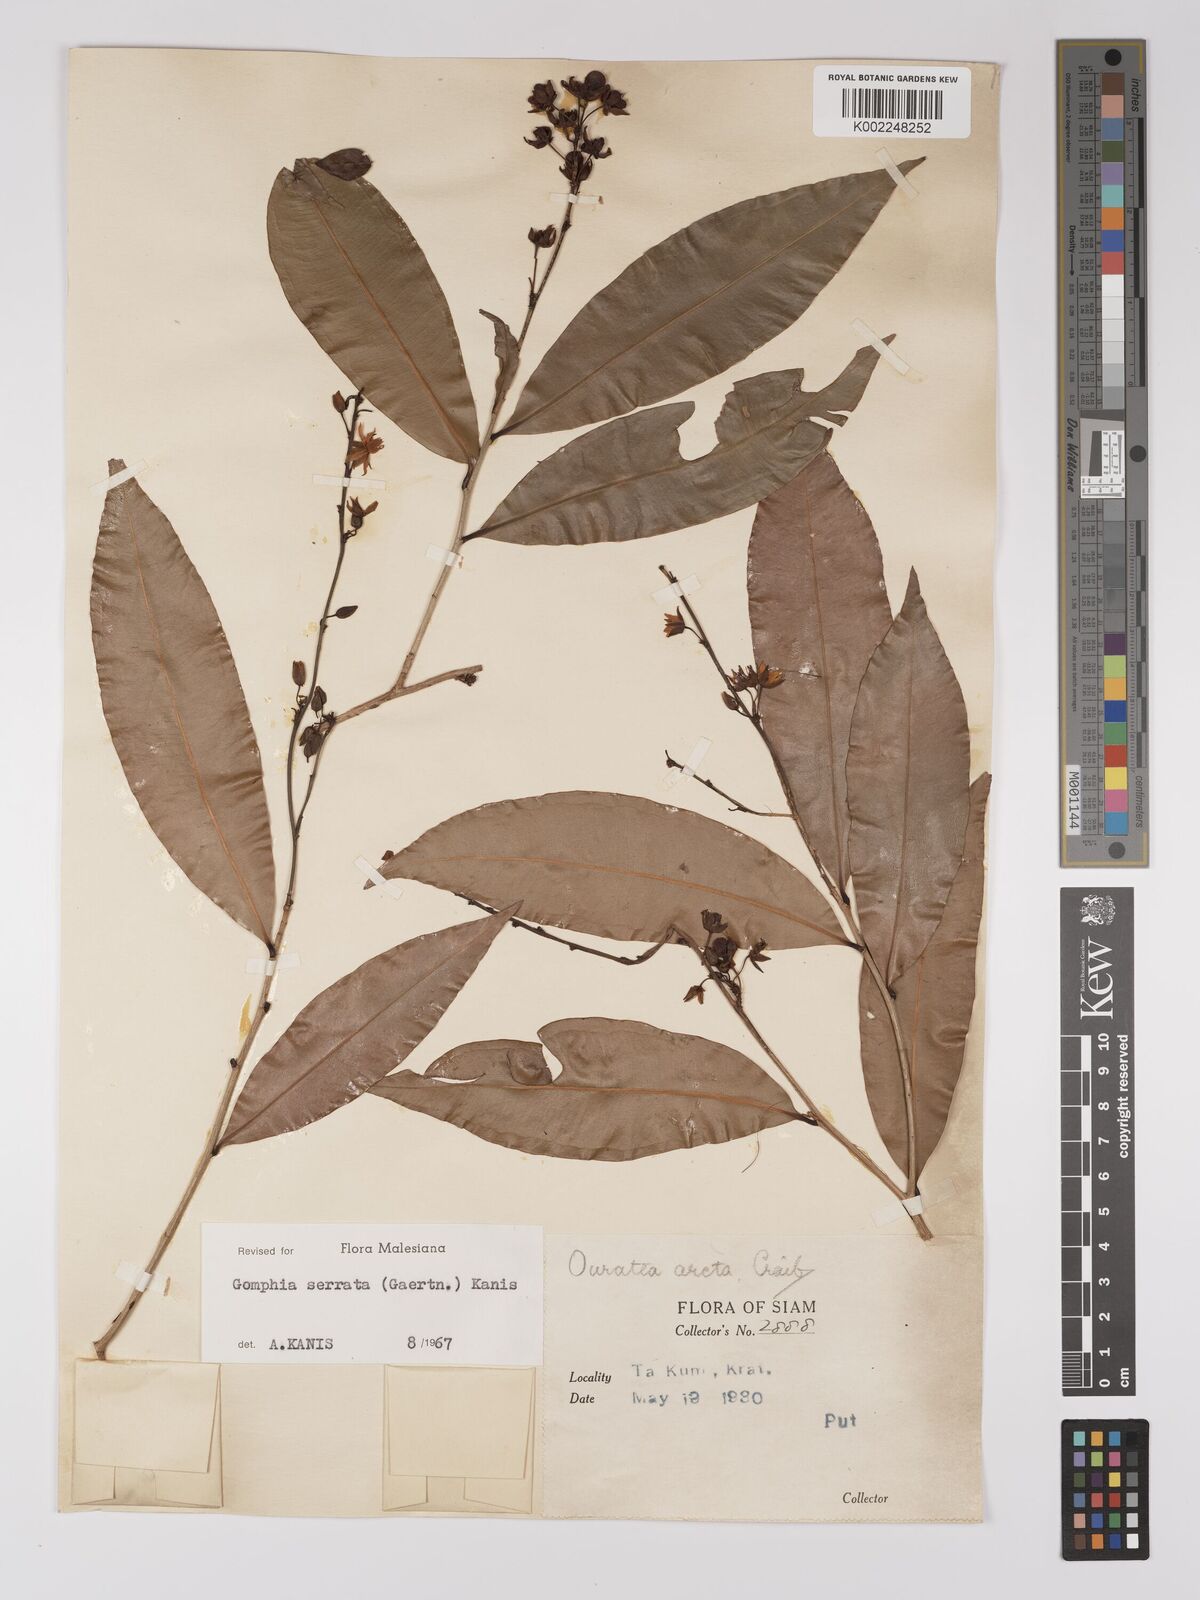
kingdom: Plantae
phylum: Tracheophyta
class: Magnoliopsida
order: Malpighiales
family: Ochnaceae
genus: Gomphia
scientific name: Gomphia serrata
